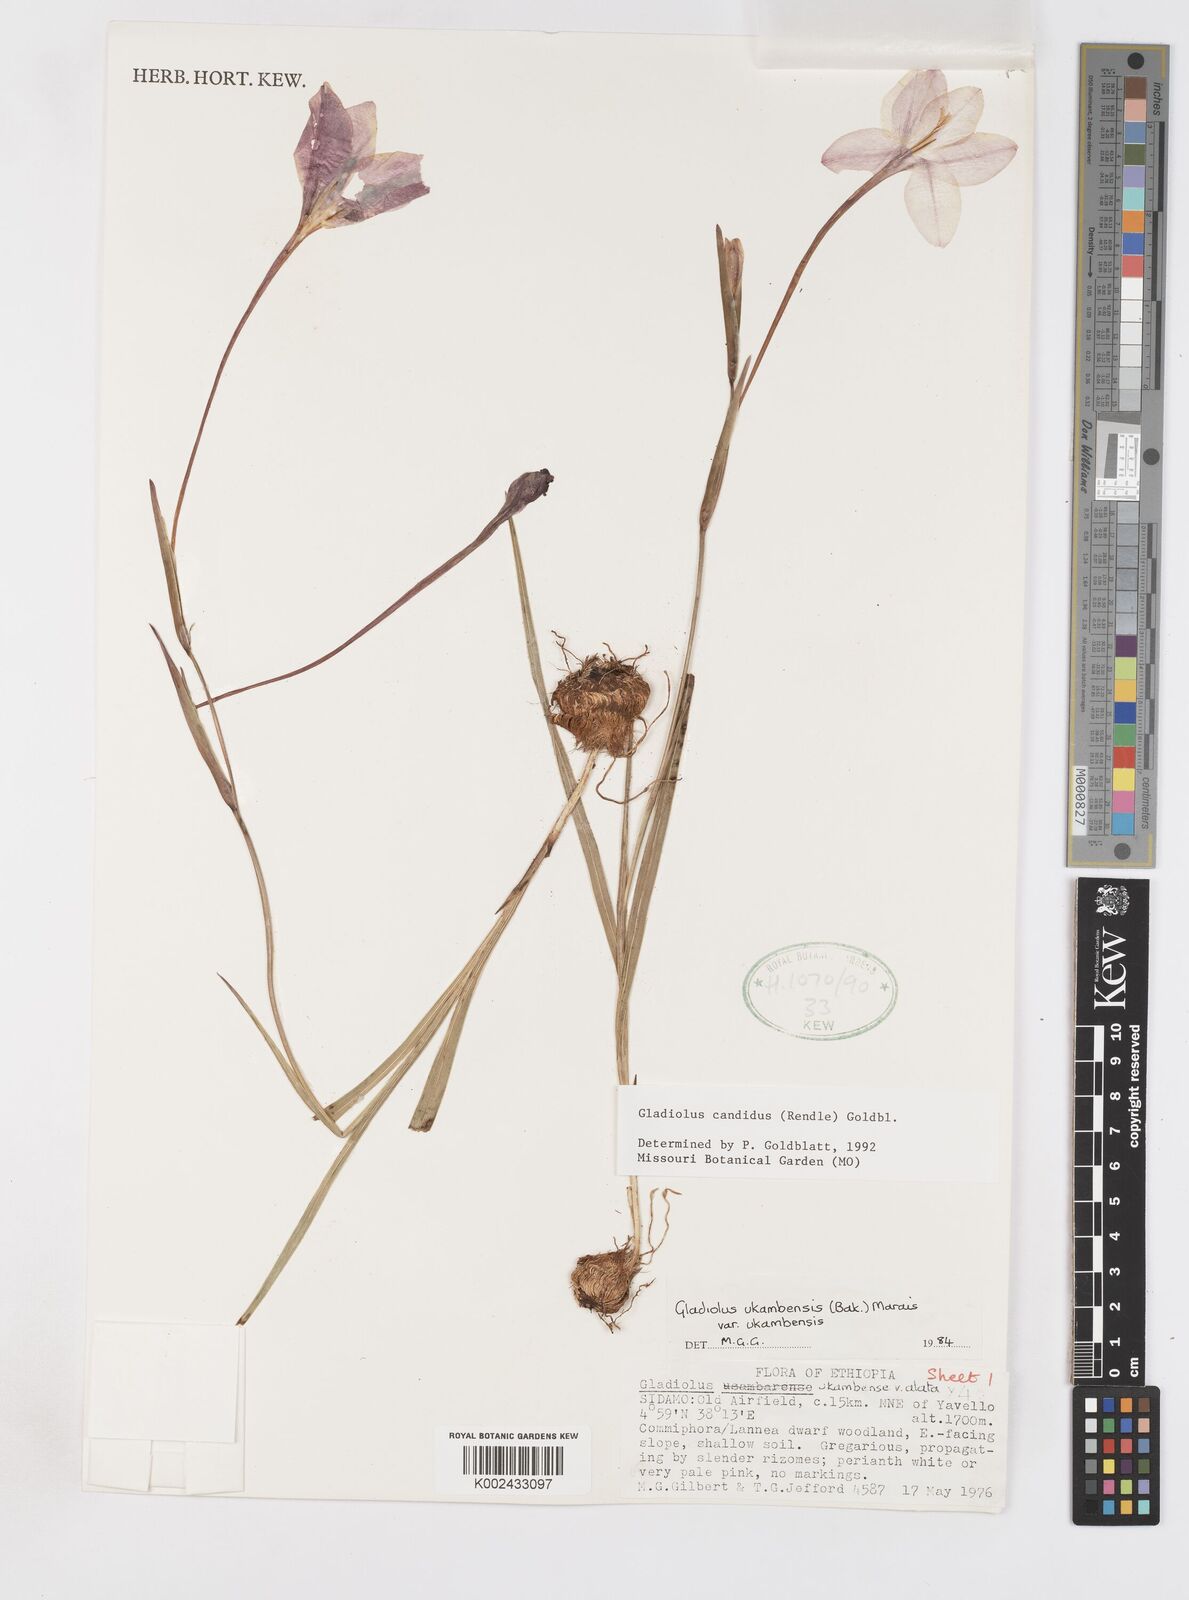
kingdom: Plantae
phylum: Tracheophyta
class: Liliopsida
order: Asparagales
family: Iridaceae
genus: Gladiolus
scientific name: Gladiolus candidus
